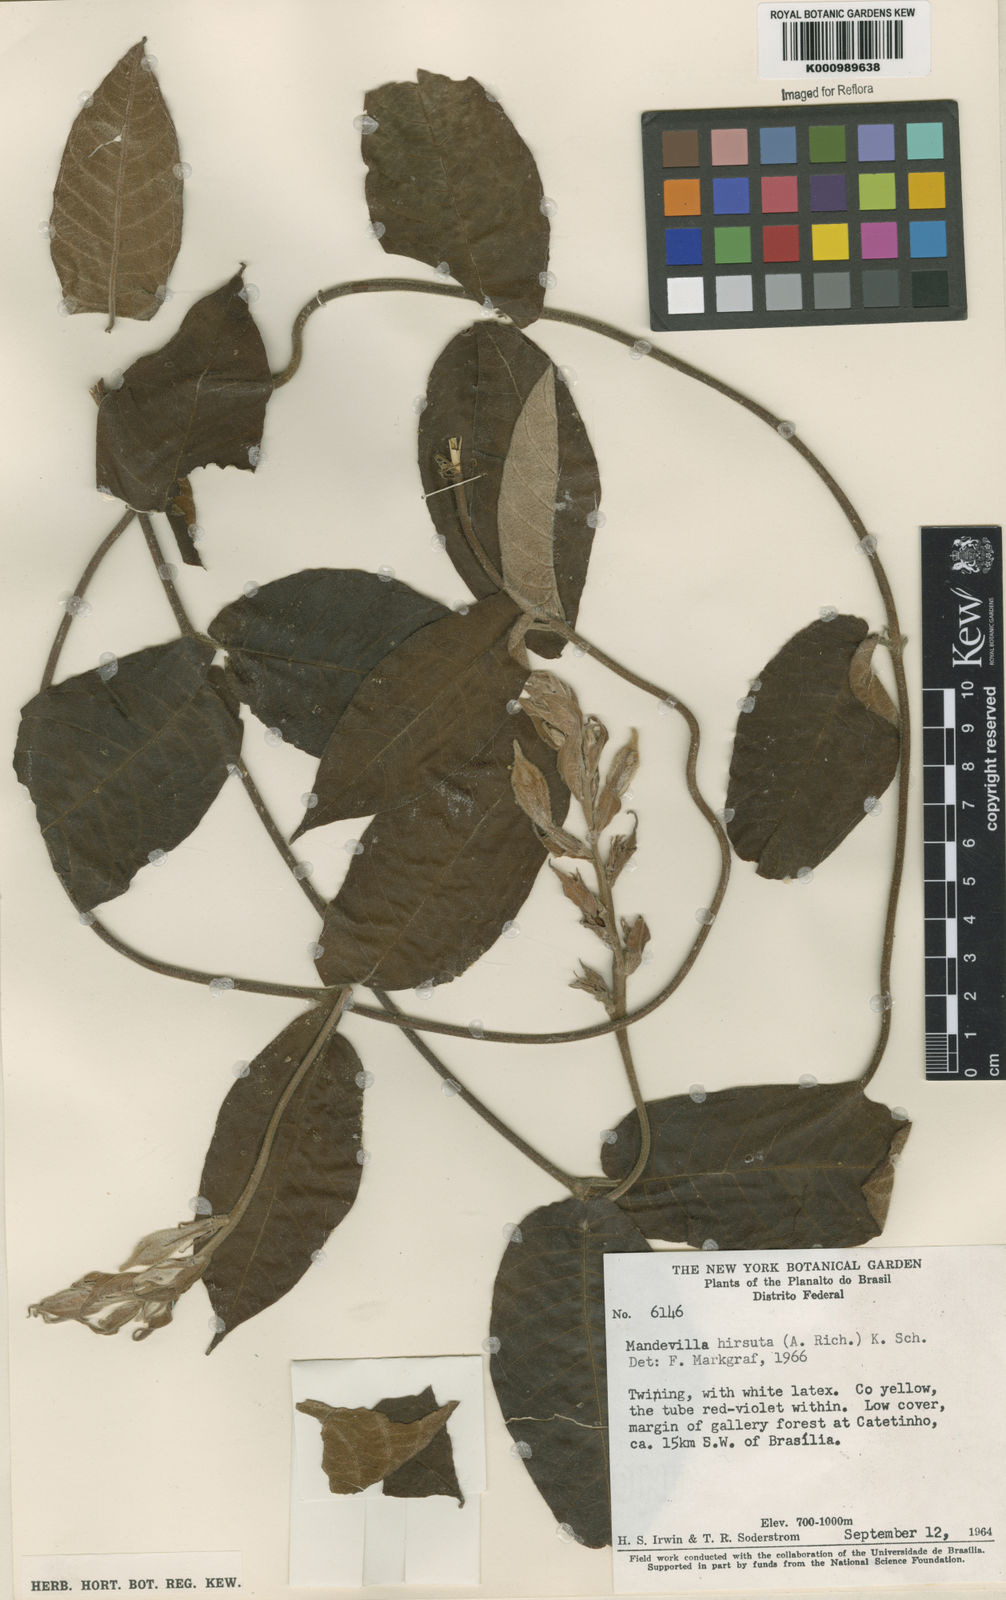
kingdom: Plantae
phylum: Tracheophyta
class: Magnoliopsida
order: Gentianales
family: Apocynaceae
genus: Mandevilla
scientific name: Mandevilla hirsuta
